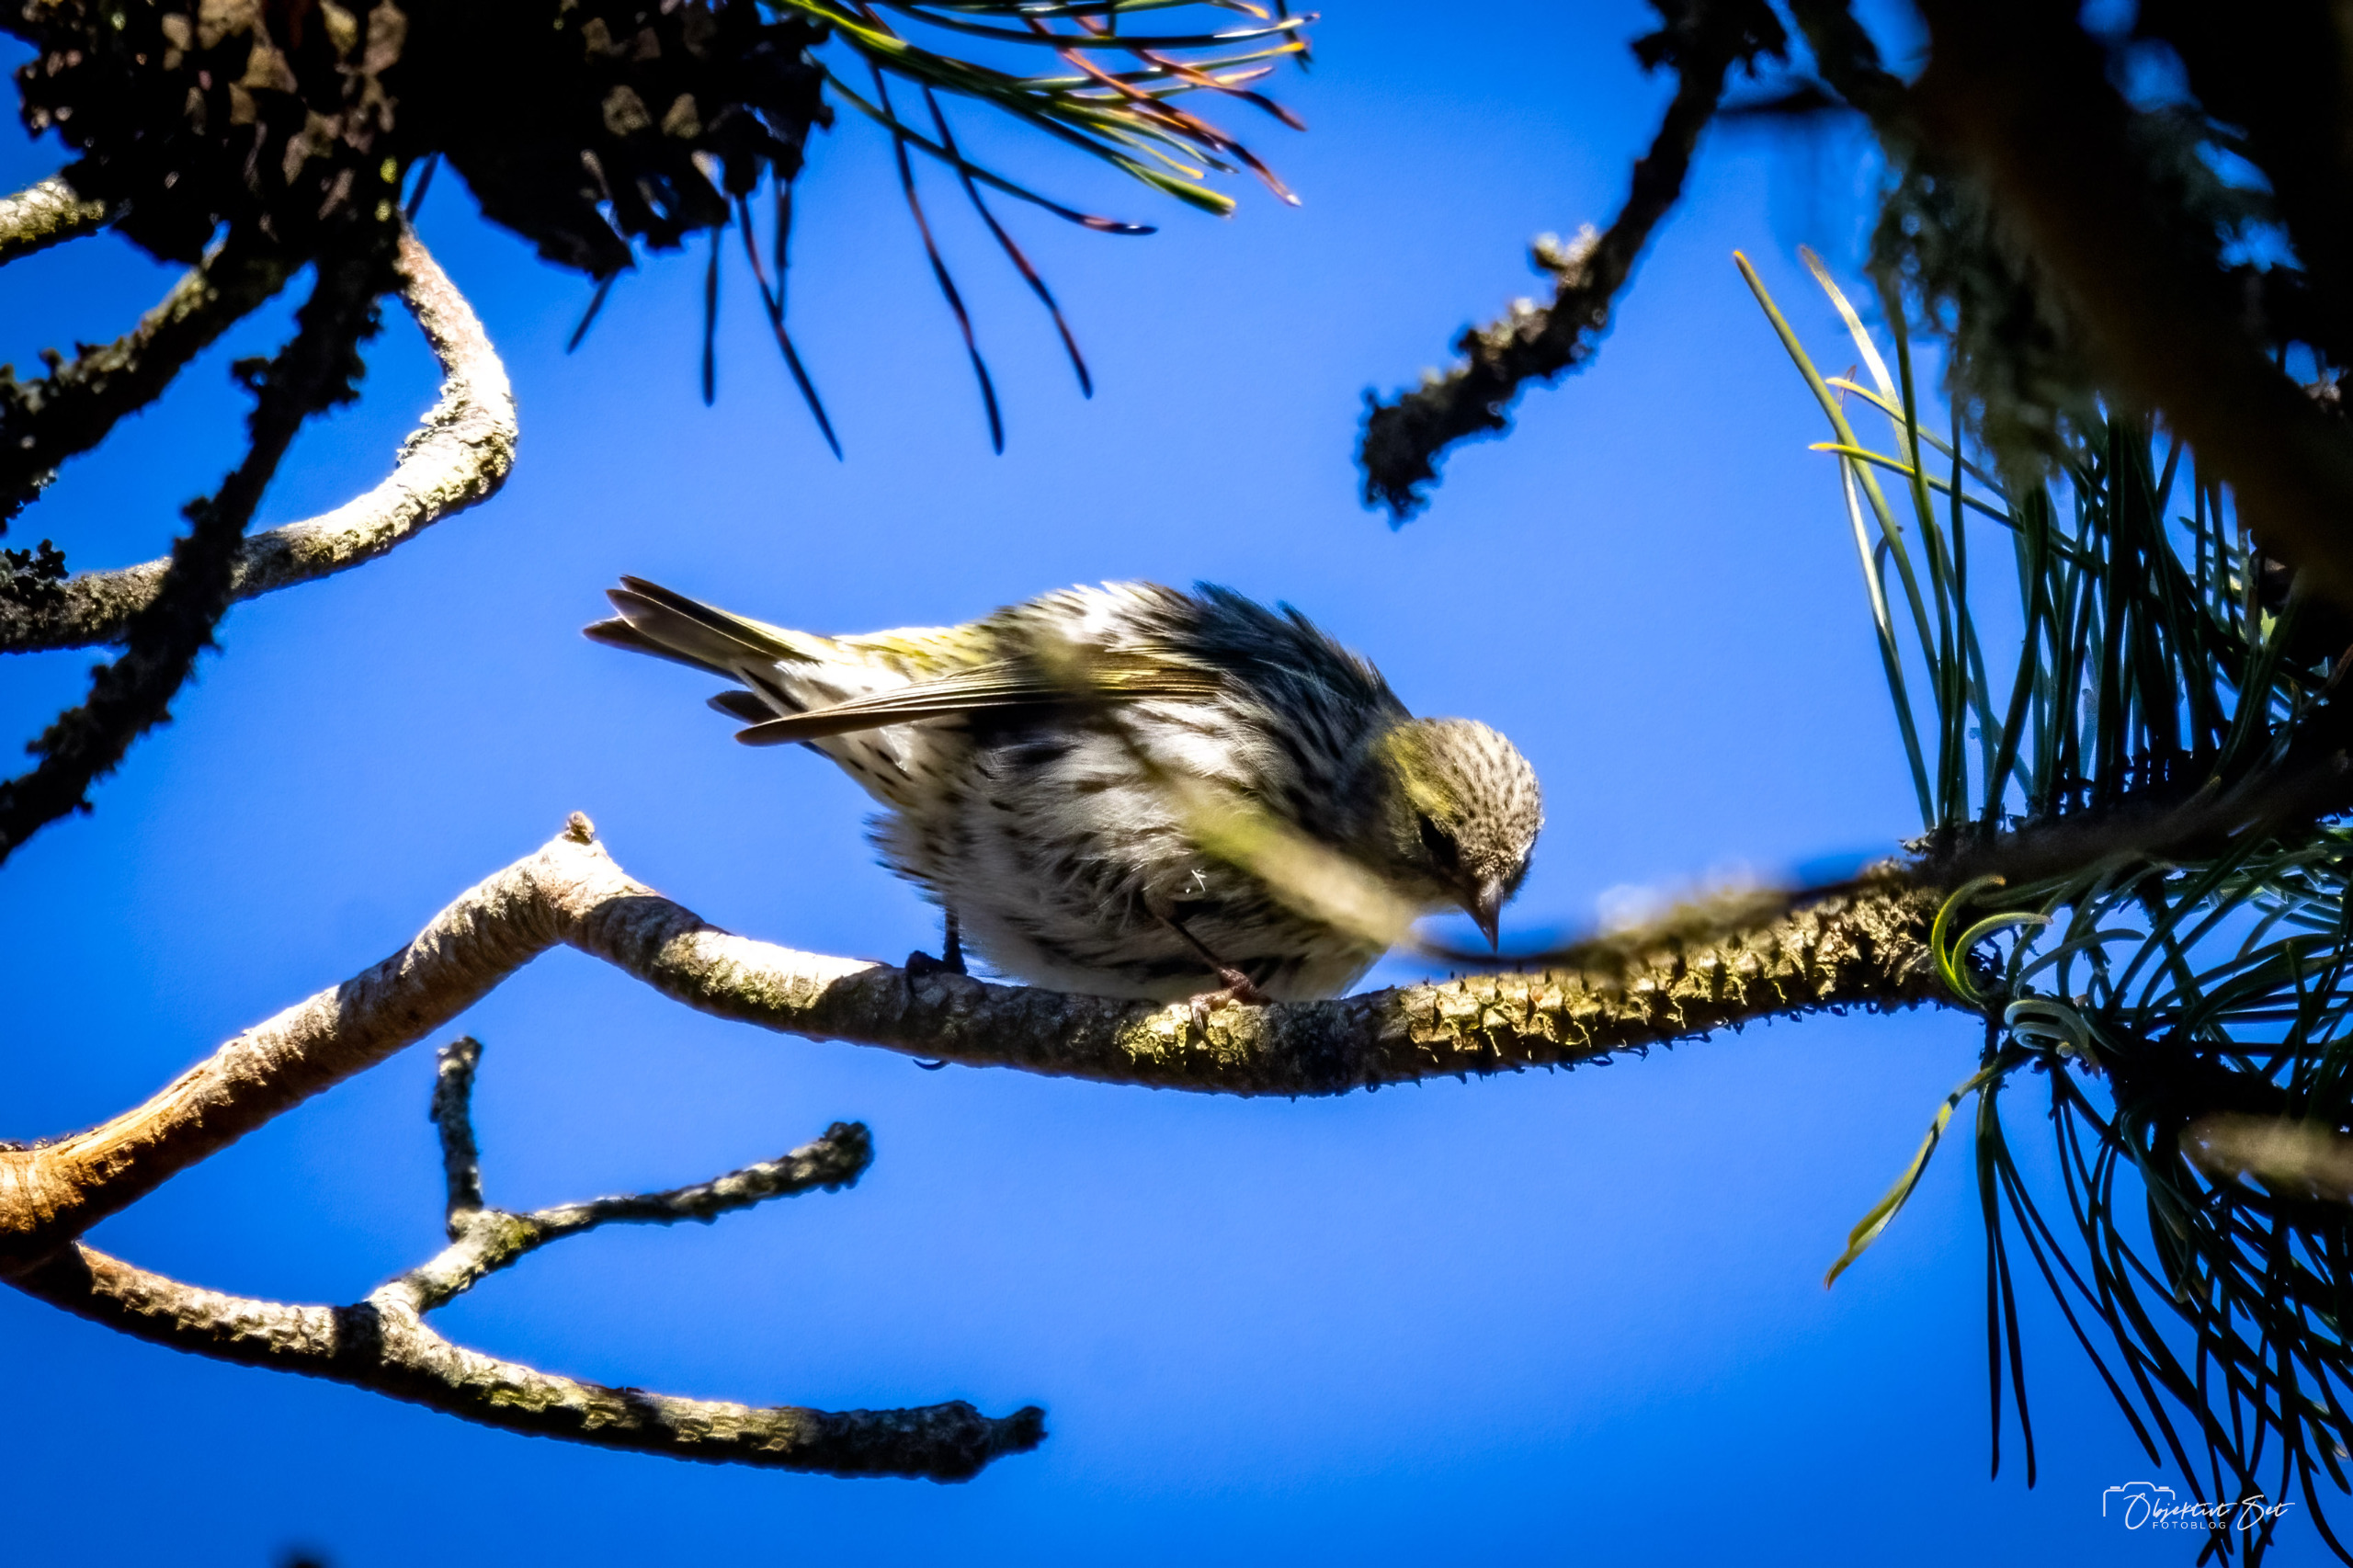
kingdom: Animalia
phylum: Chordata
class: Aves
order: Passeriformes
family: Fringillidae
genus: Spinus
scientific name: Spinus spinus
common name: Grønsisken
